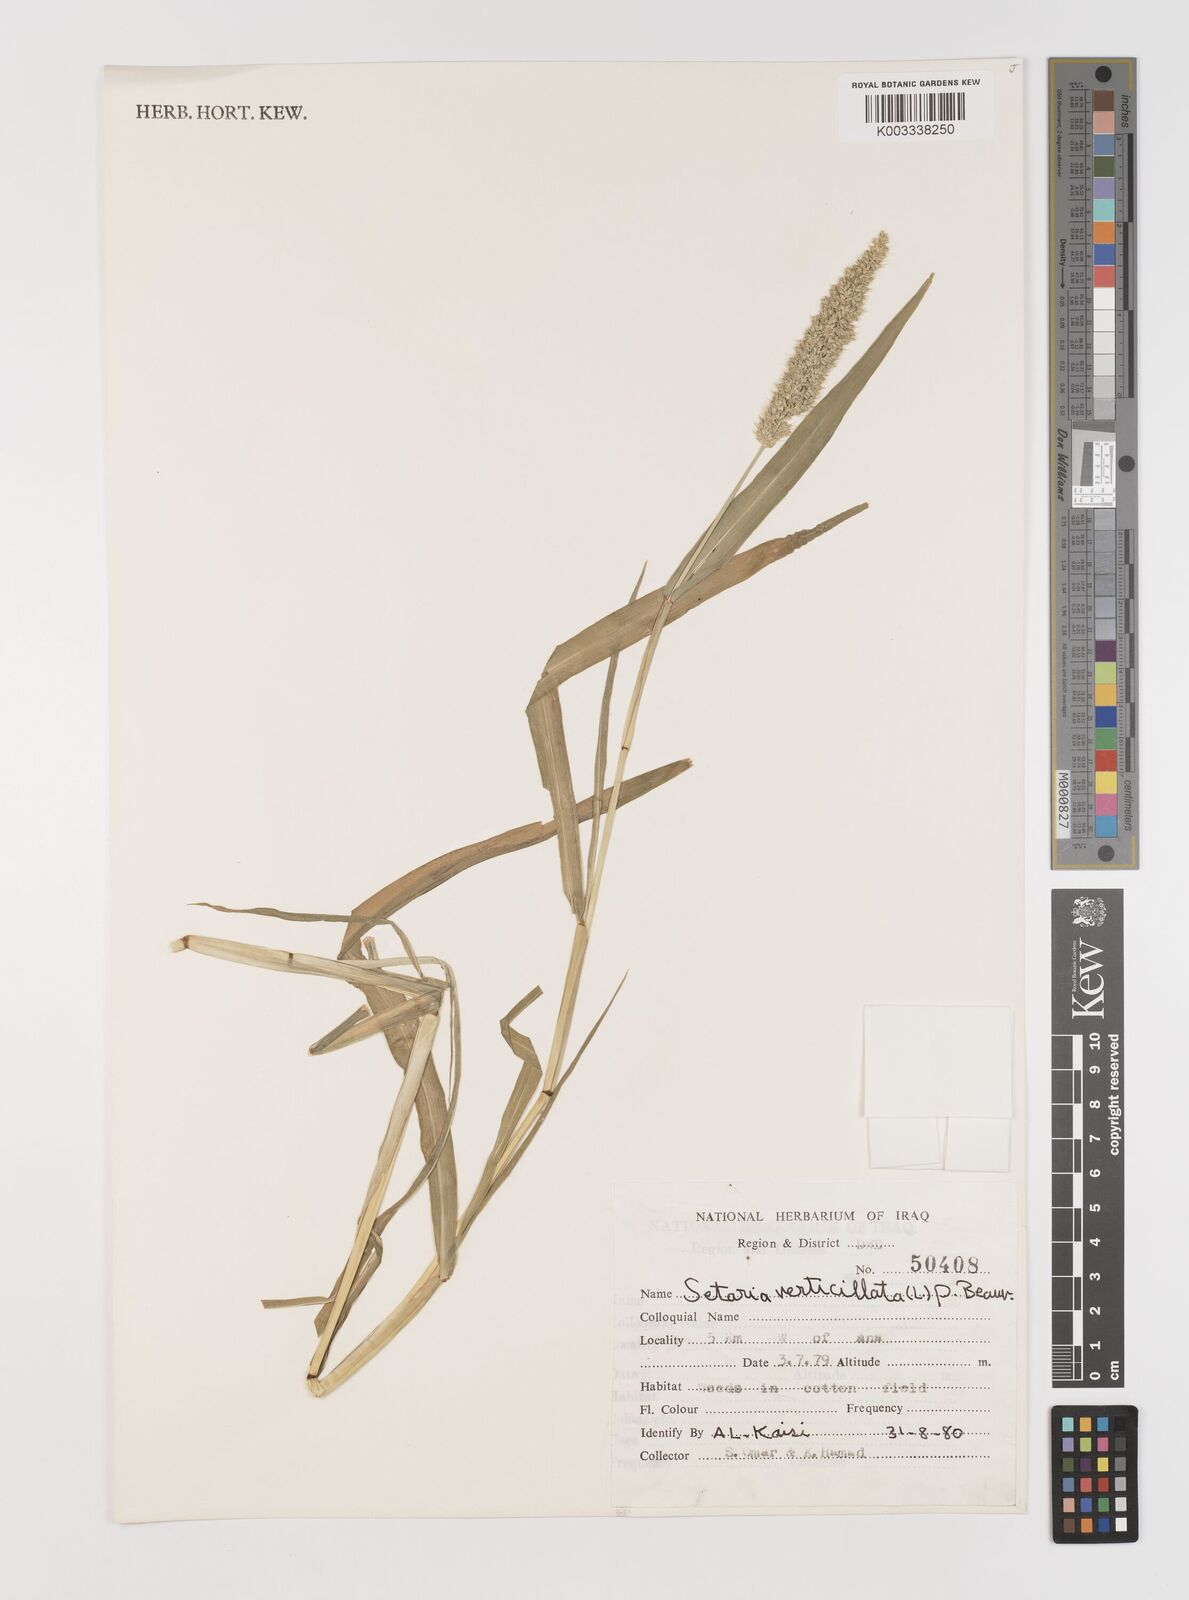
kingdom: Plantae
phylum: Tracheophyta
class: Liliopsida
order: Poales
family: Poaceae
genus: Setaria
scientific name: Setaria verticillata
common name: Hooked bristlegrass
